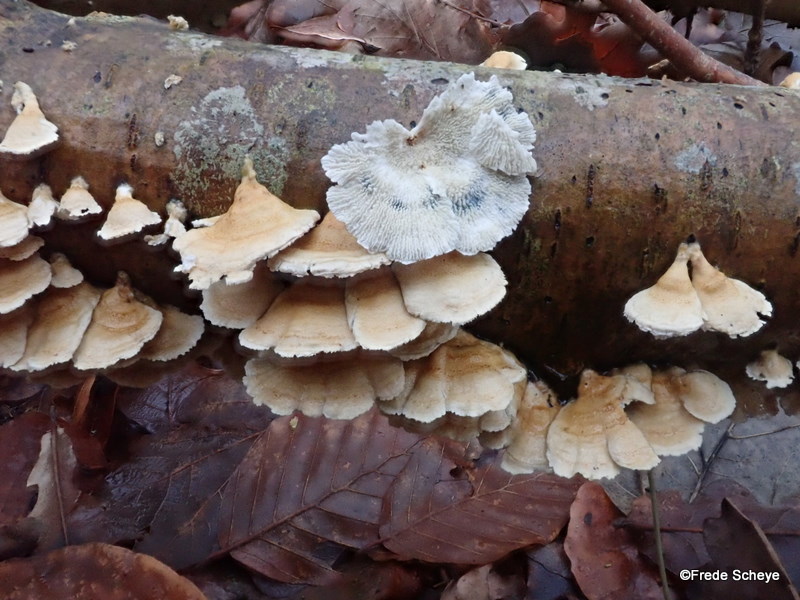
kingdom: Fungi
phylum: Basidiomycota
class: Agaricomycetes
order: Amylocorticiales
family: Amylocorticiaceae
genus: Plicaturopsis
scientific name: Plicaturopsis crispa
